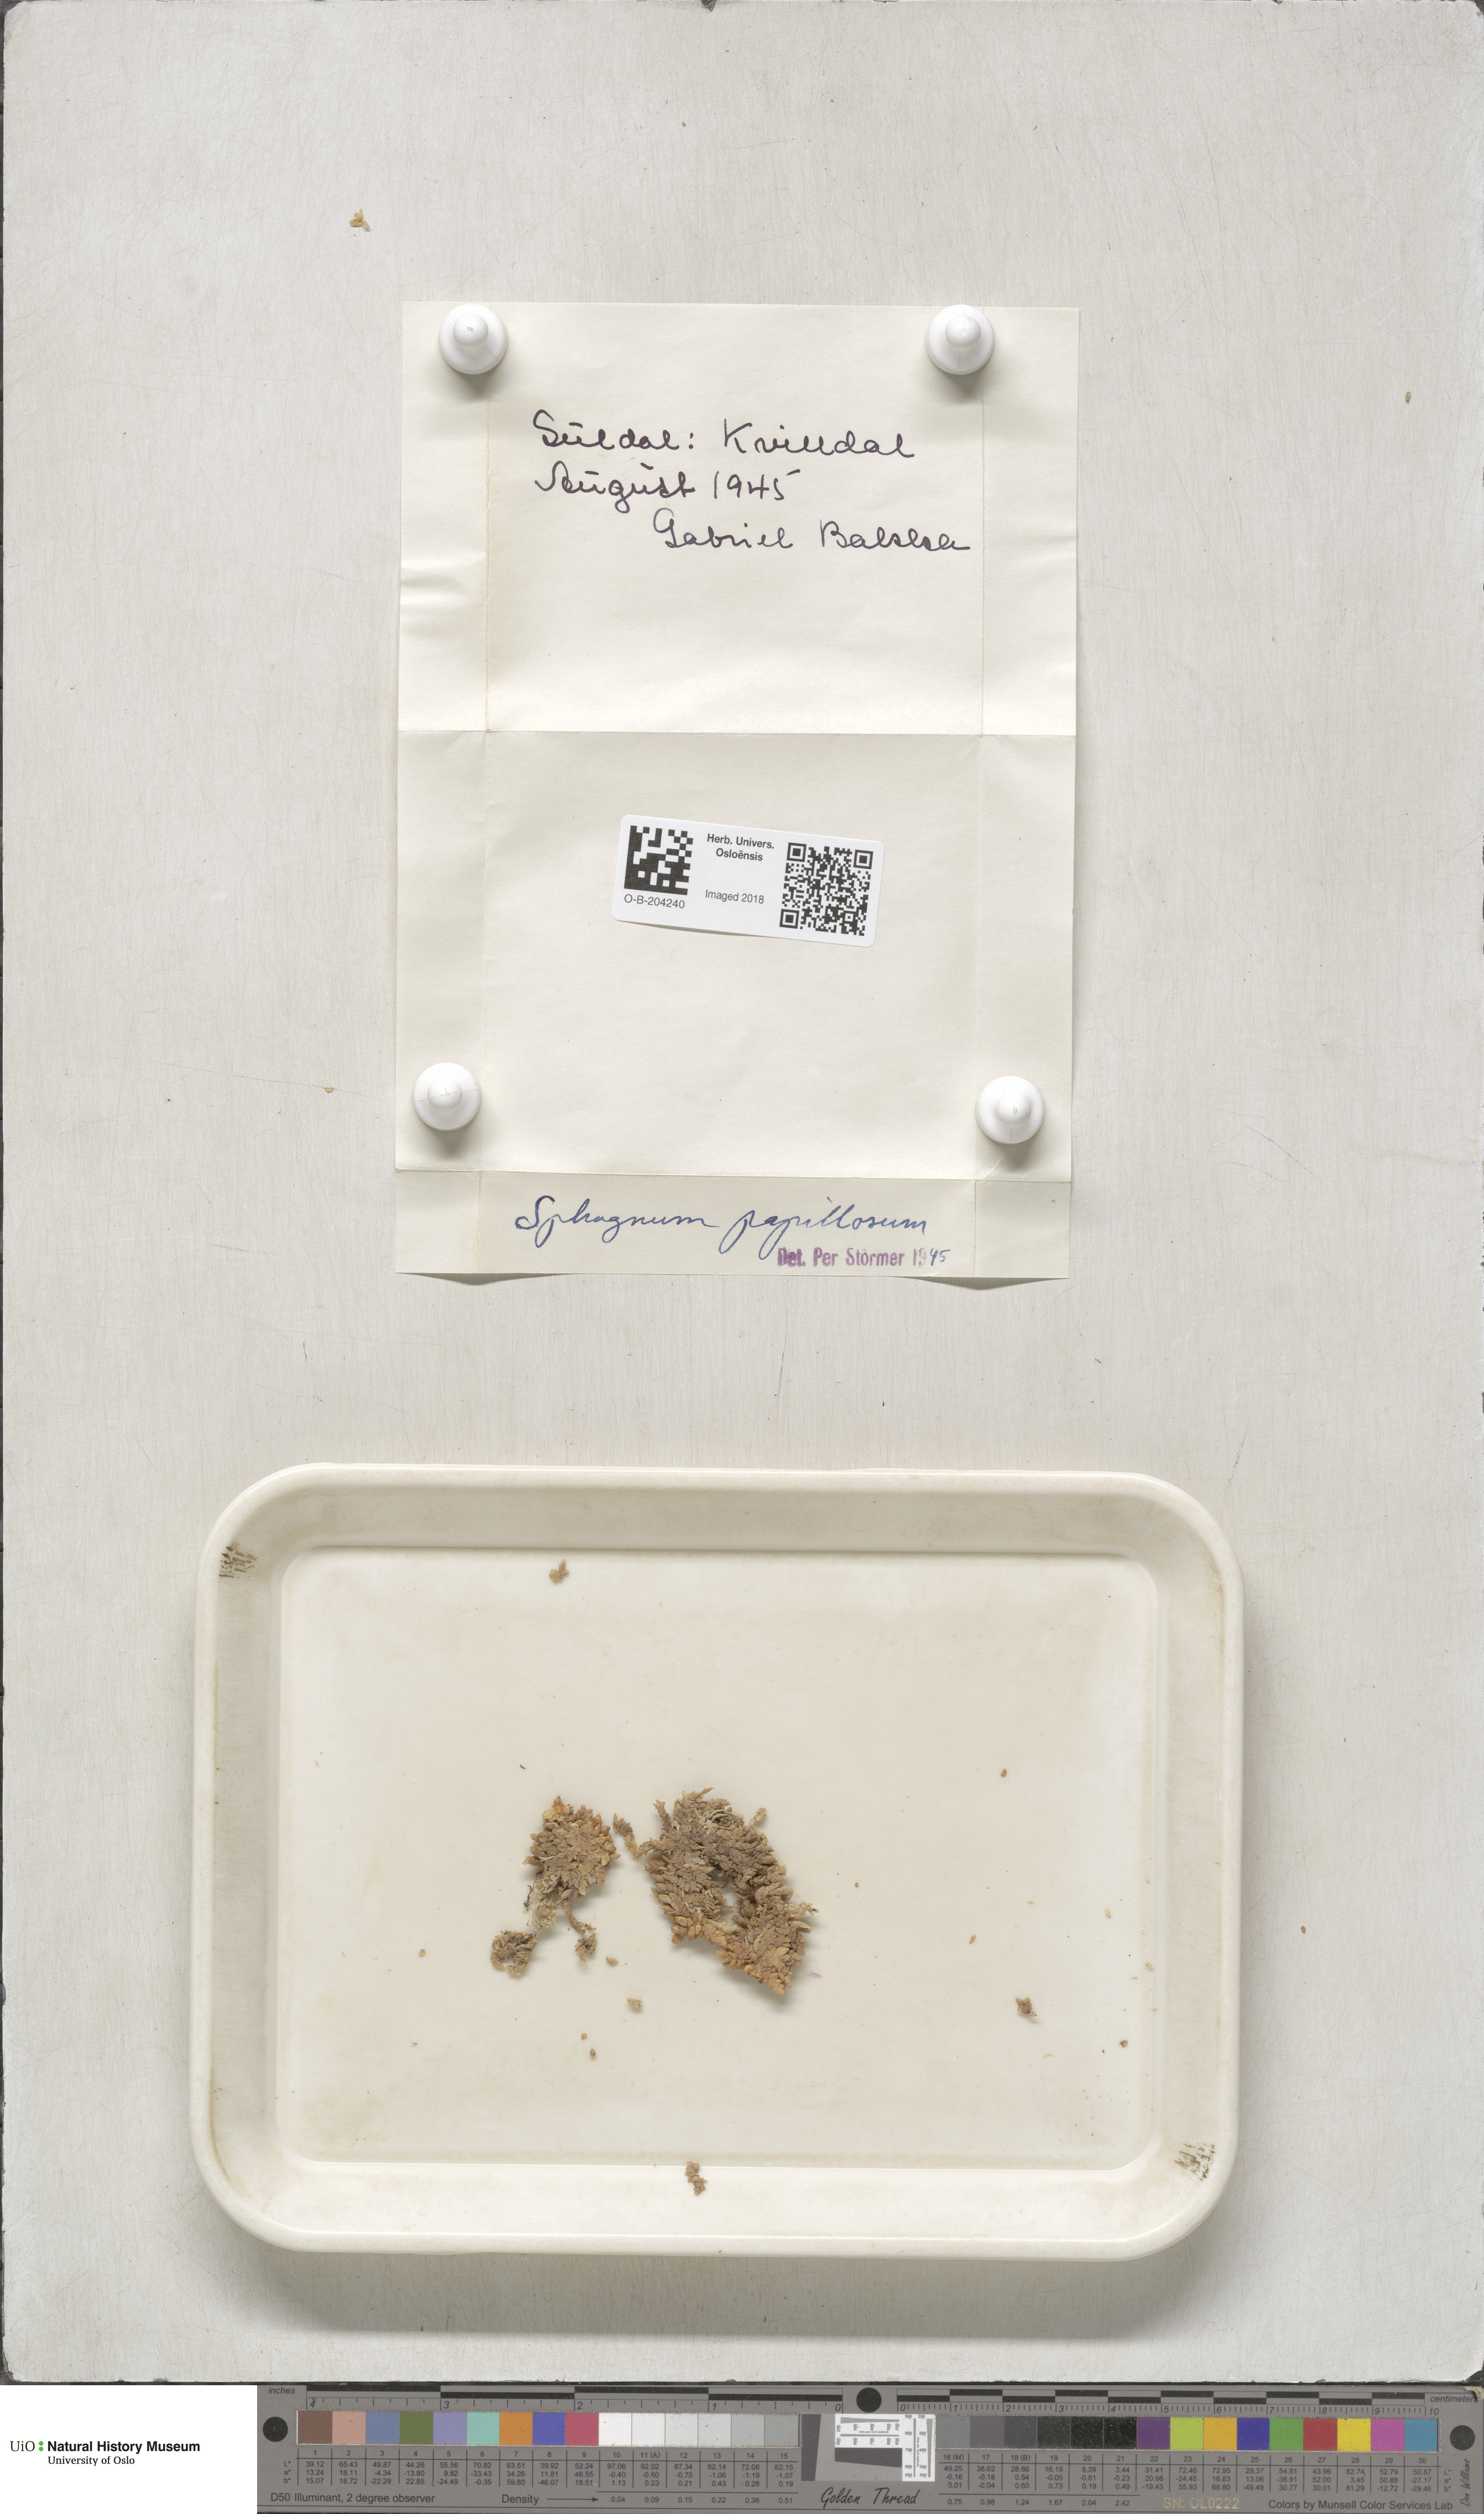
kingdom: Plantae
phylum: Bryophyta
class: Sphagnopsida
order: Sphagnales
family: Sphagnaceae
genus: Sphagnum
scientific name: Sphagnum papillosum
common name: Papillose peat moss
